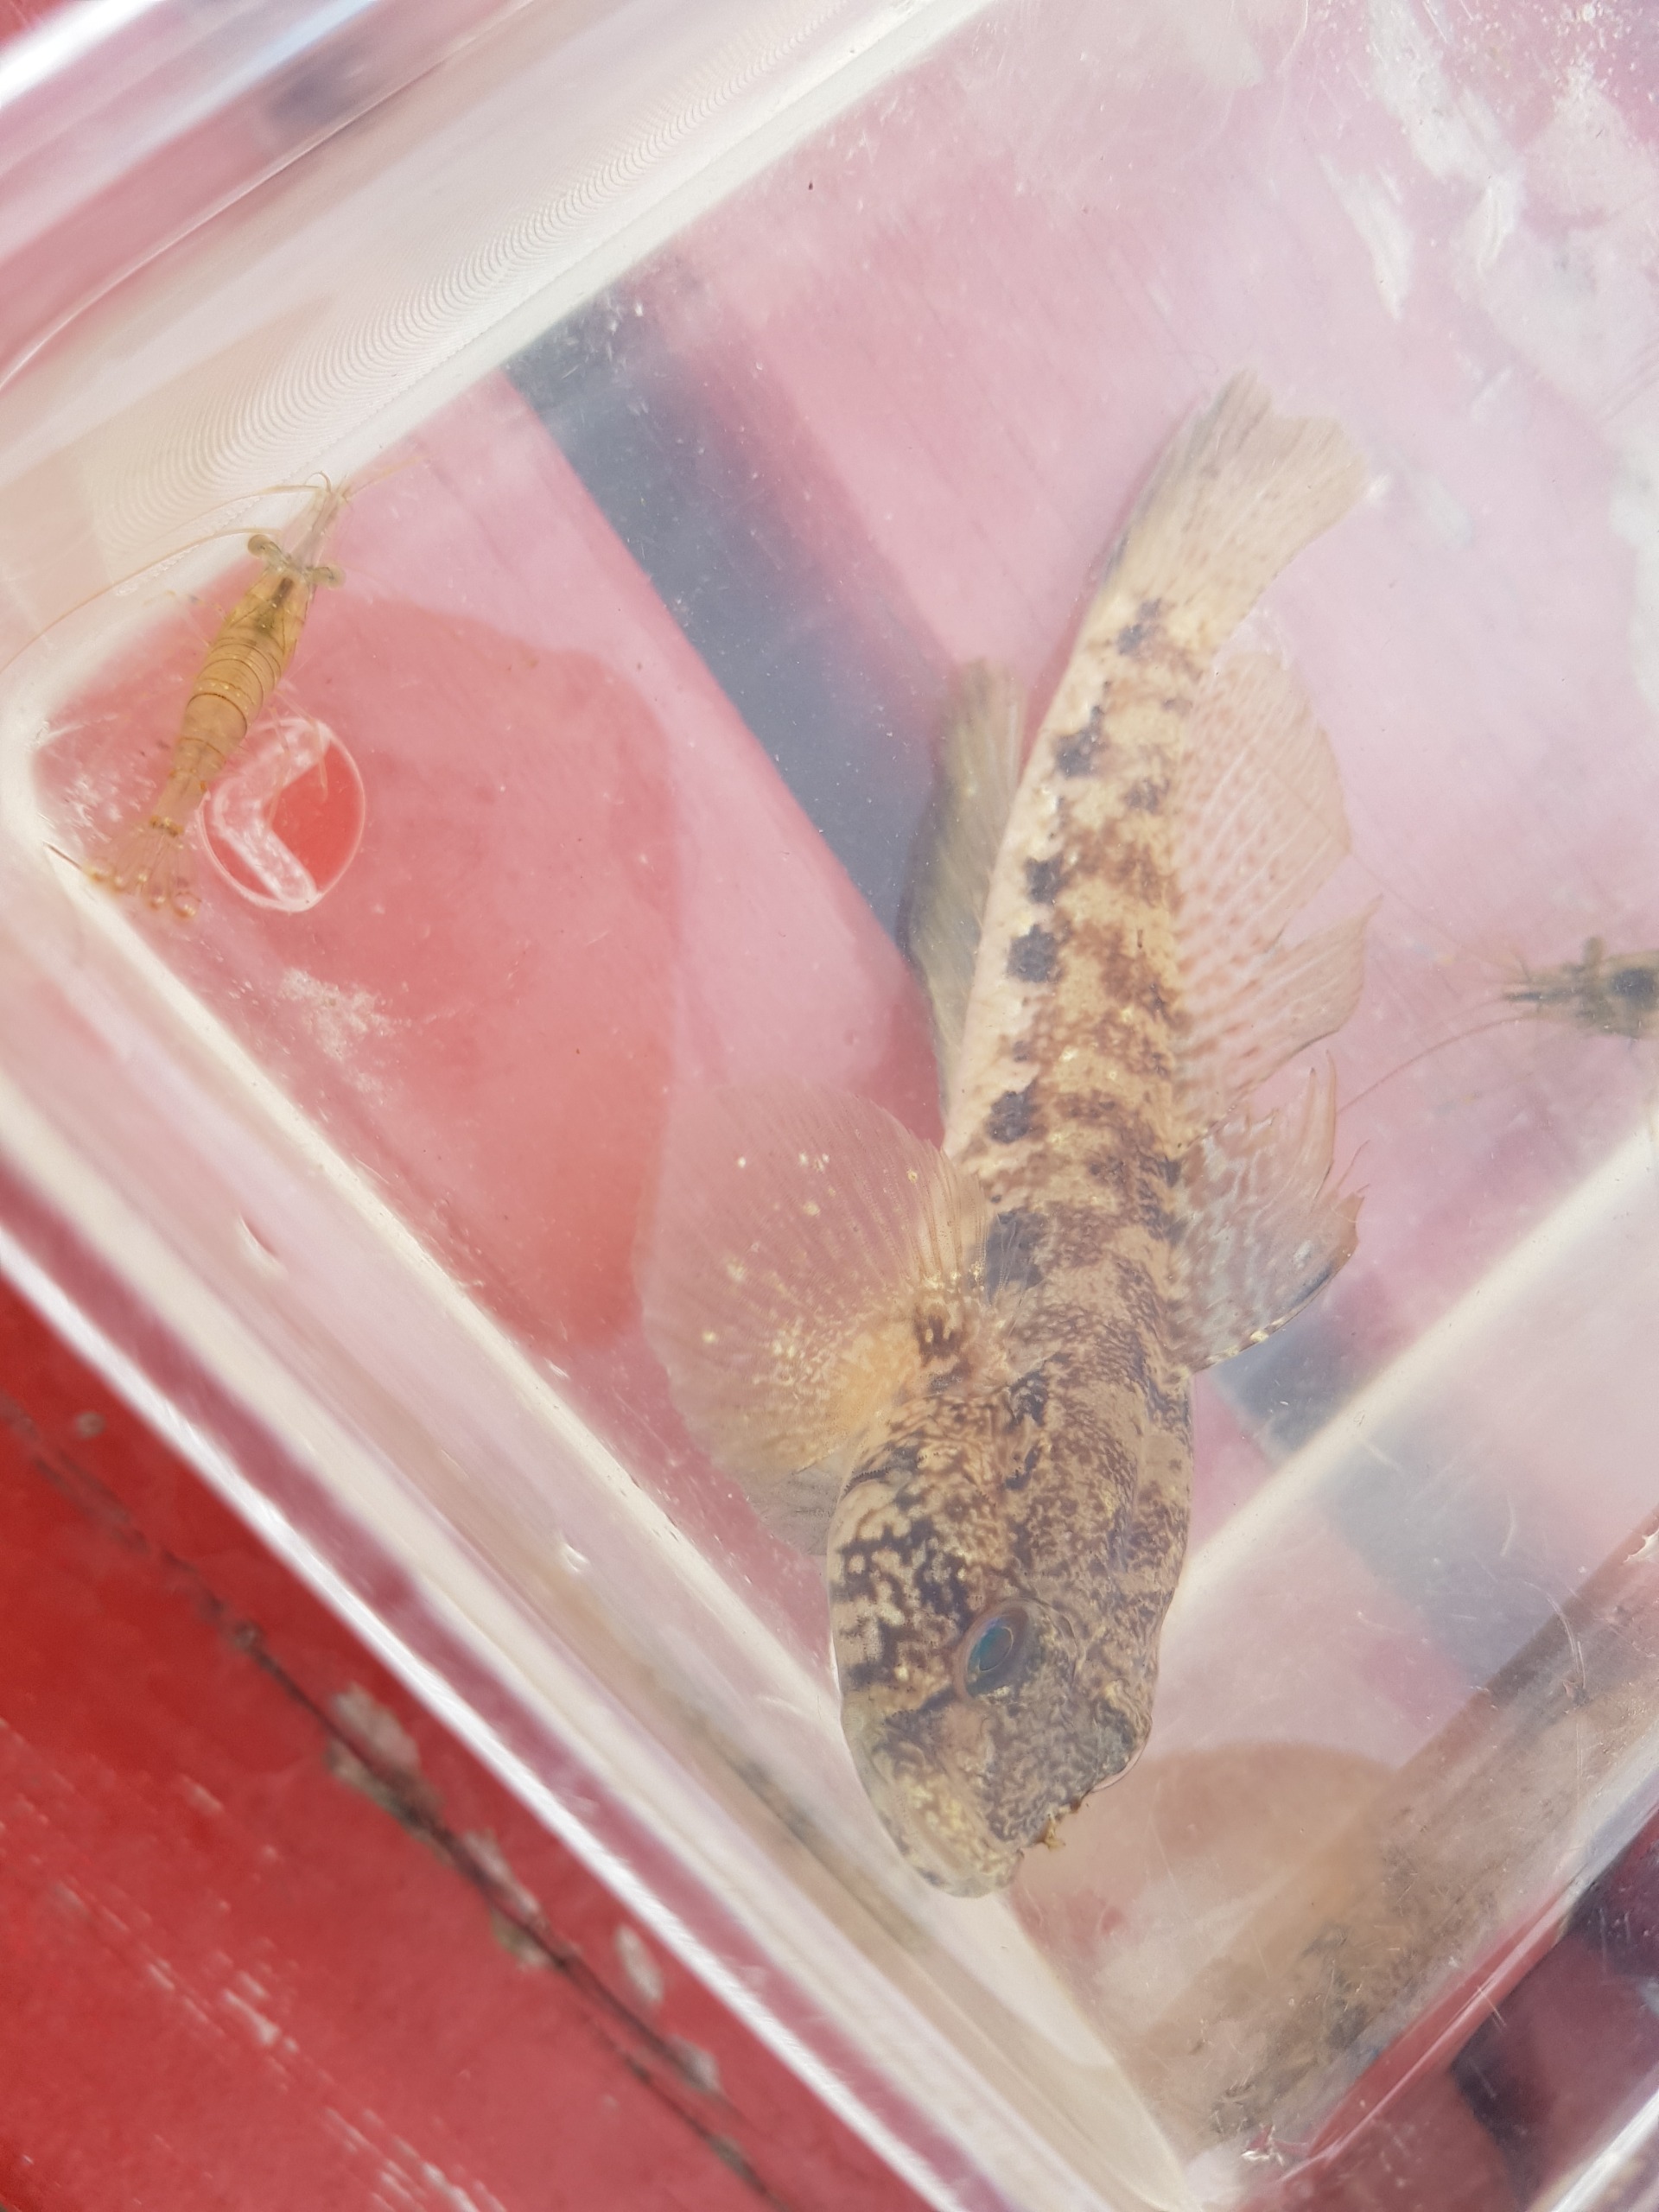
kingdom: Animalia
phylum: Chordata
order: Perciformes
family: Gobiidae
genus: Gobius
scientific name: Gobius niger
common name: Sortkutling
